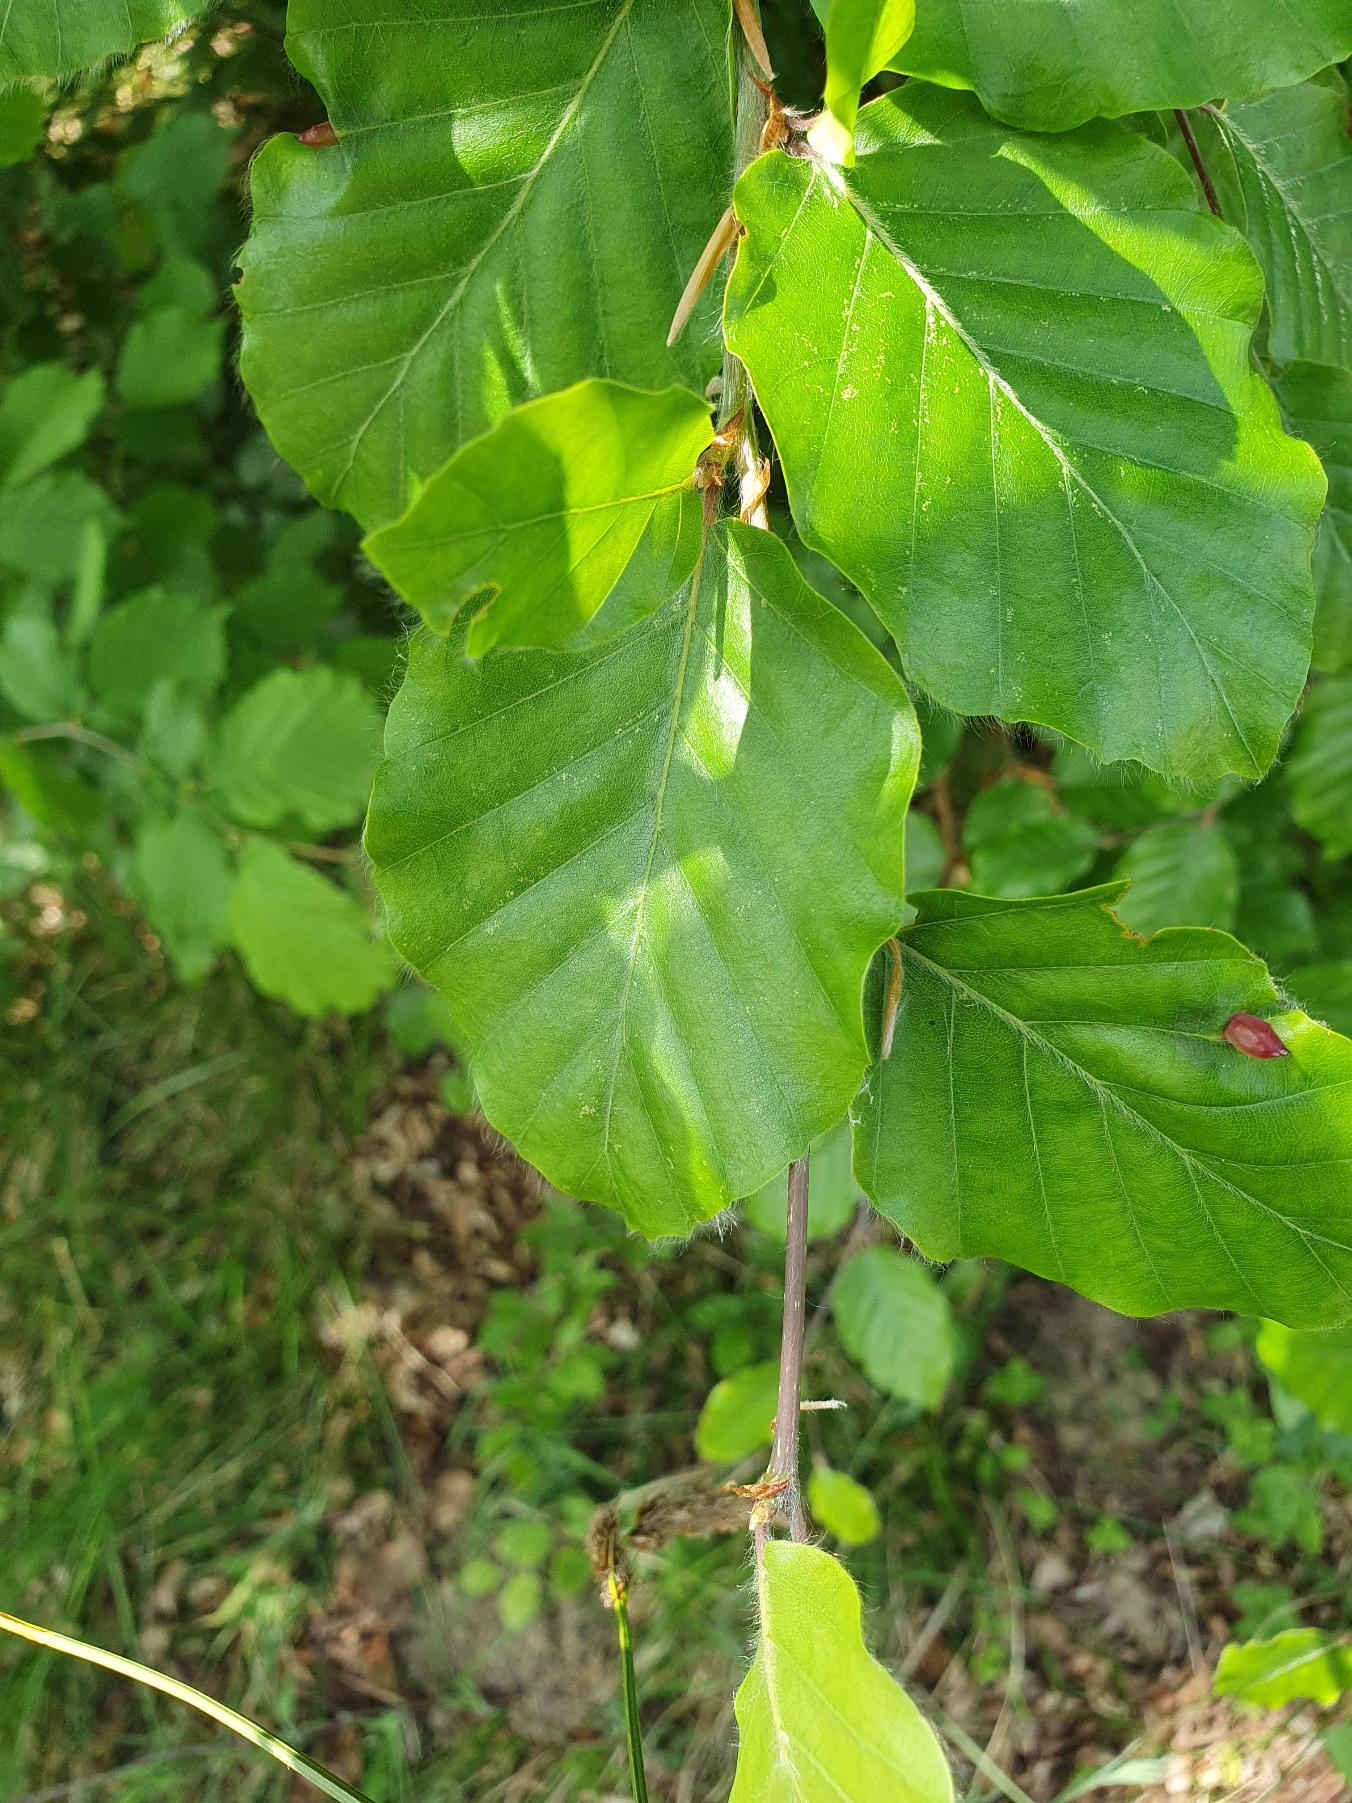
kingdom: Plantae
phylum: Tracheophyta
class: Magnoliopsida
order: Fagales
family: Fagaceae
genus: Fagus
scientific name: Fagus sylvatica
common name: Bøg
